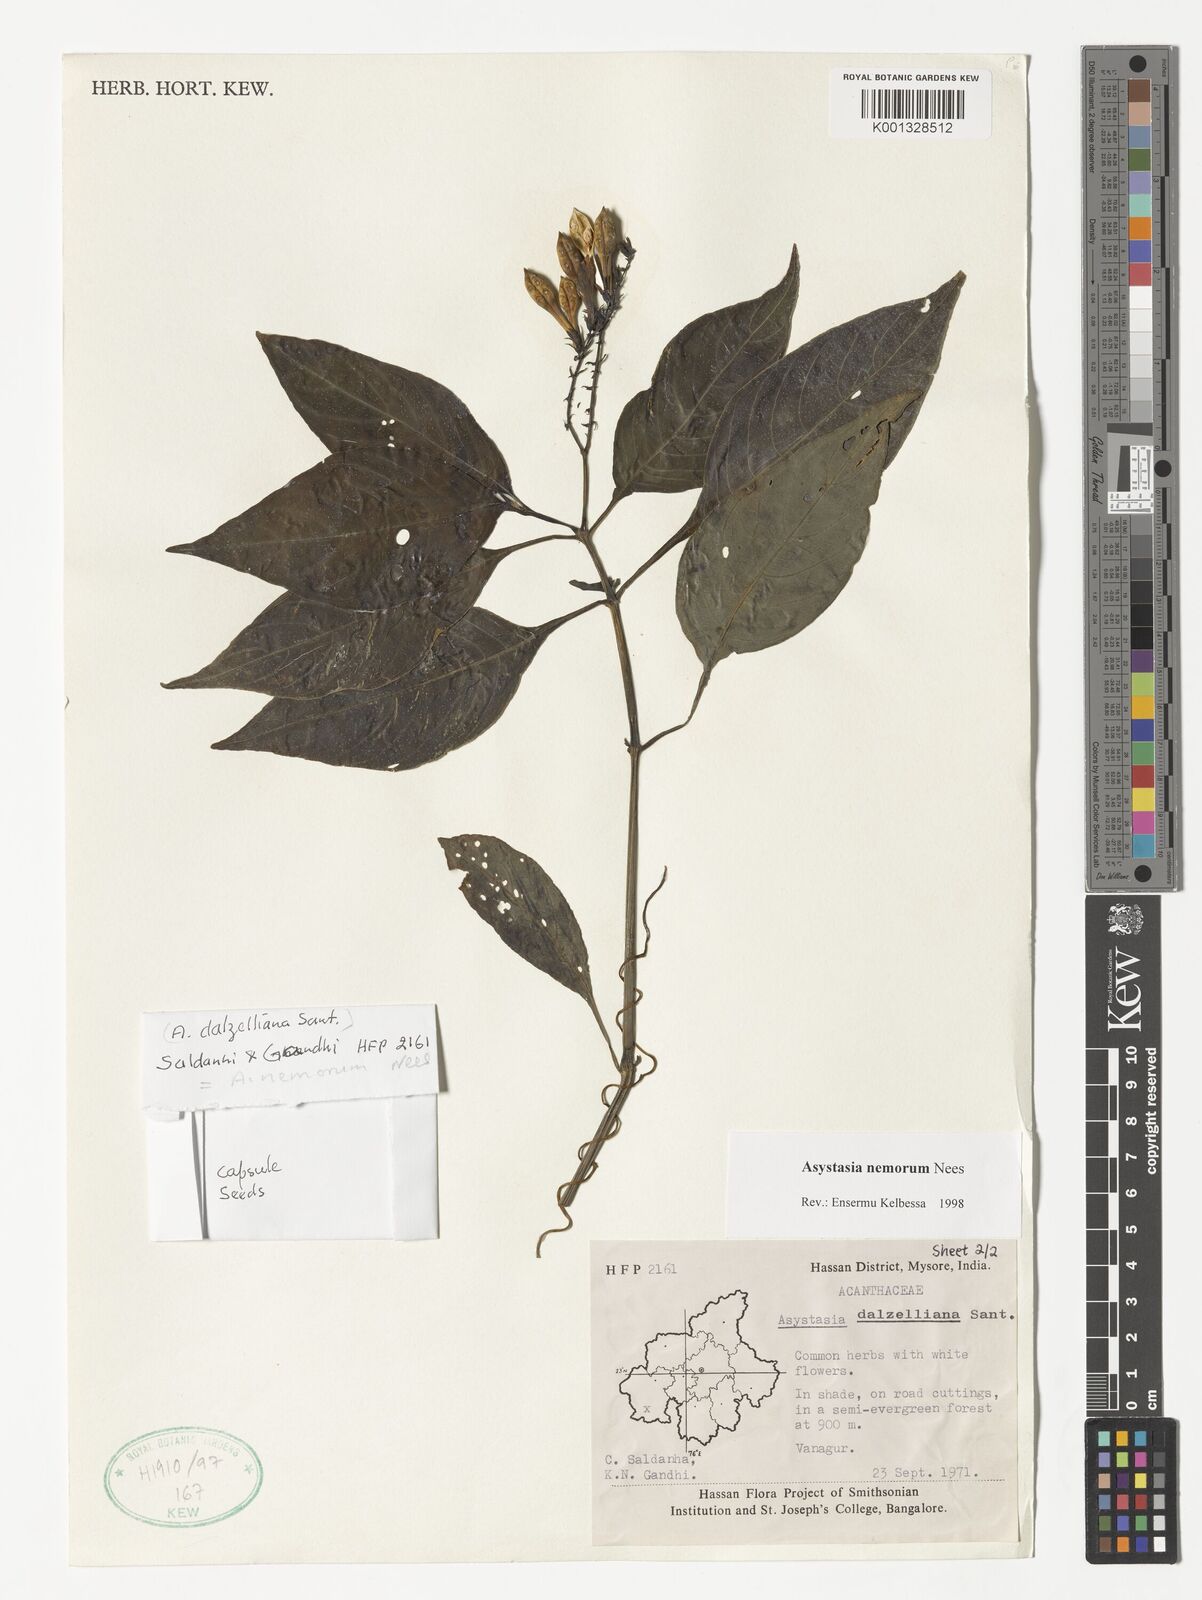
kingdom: Plantae
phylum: Tracheophyta
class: Magnoliopsida
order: Lamiales
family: Acanthaceae
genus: Asystasia
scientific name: Asystasia nemorum
